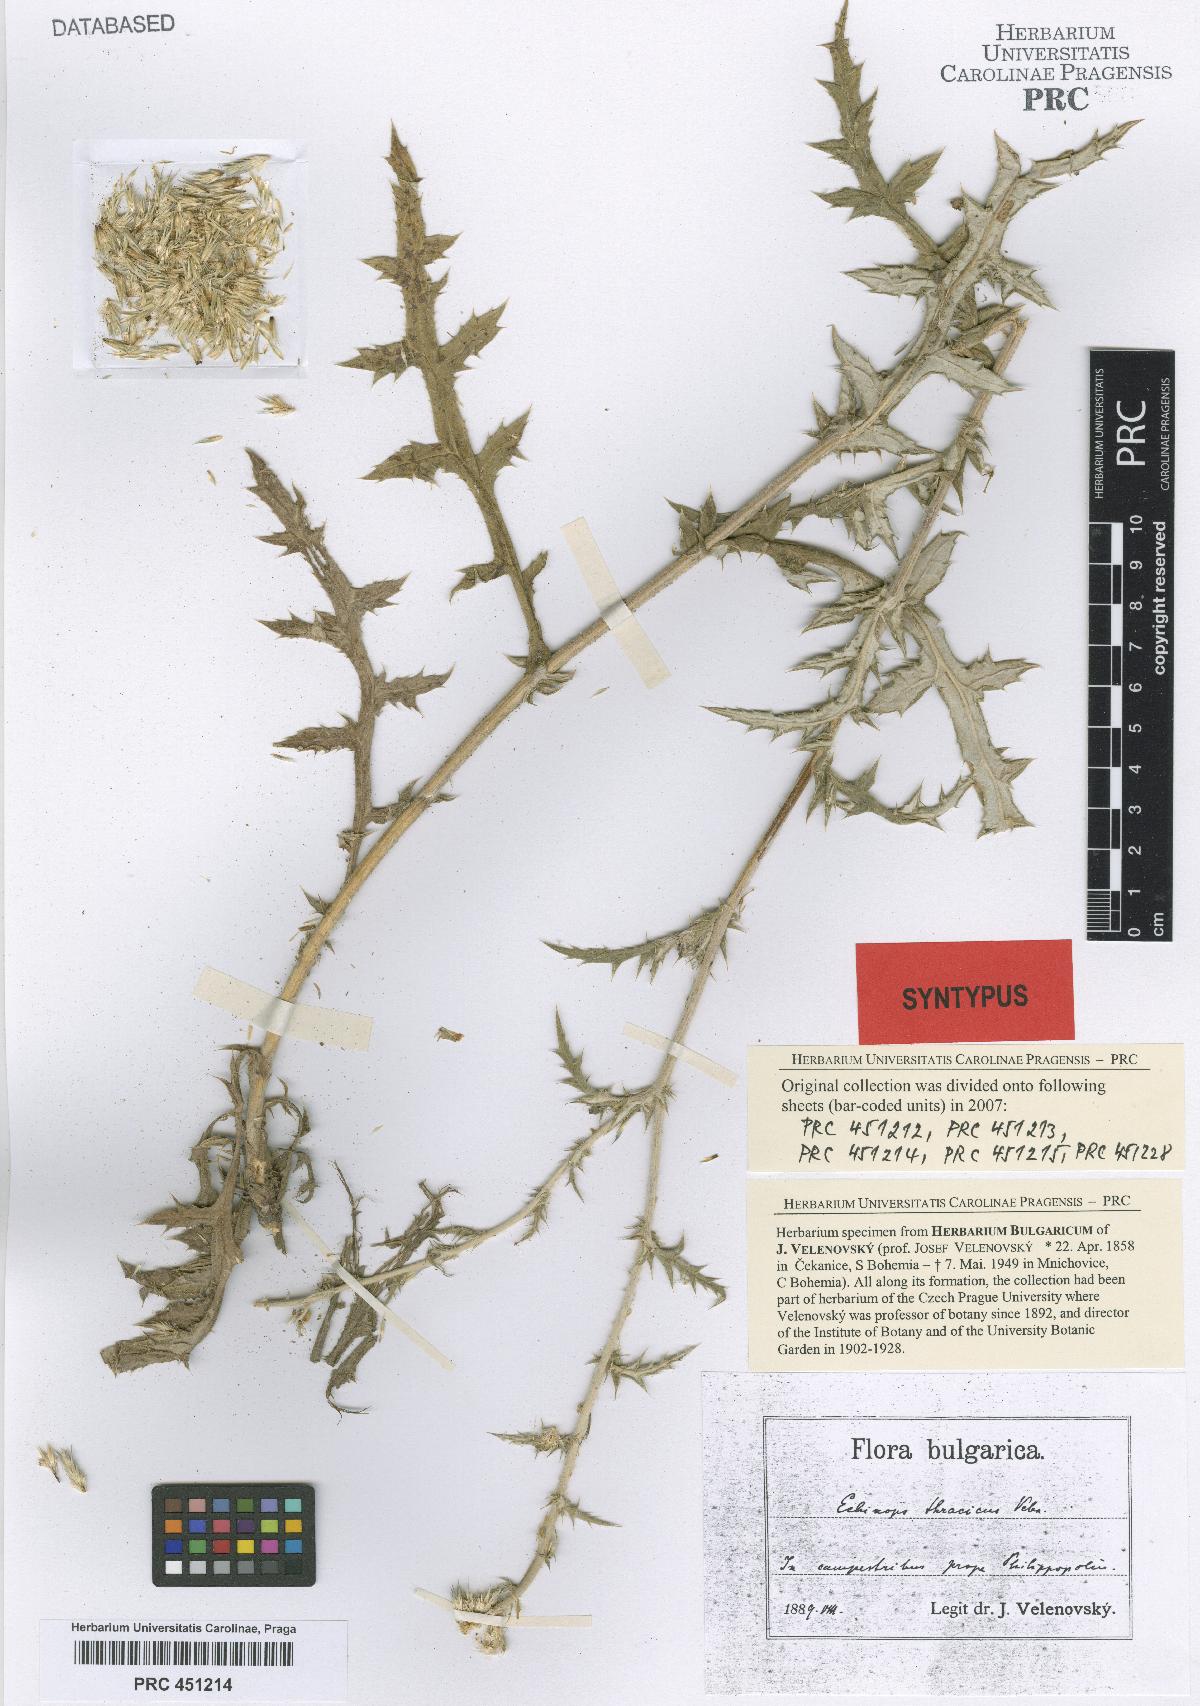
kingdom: Plantae
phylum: Tracheophyta
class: Magnoliopsida
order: Asterales
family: Asteraceae
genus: Echinops
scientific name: Echinops ritro
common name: Globe thistle
